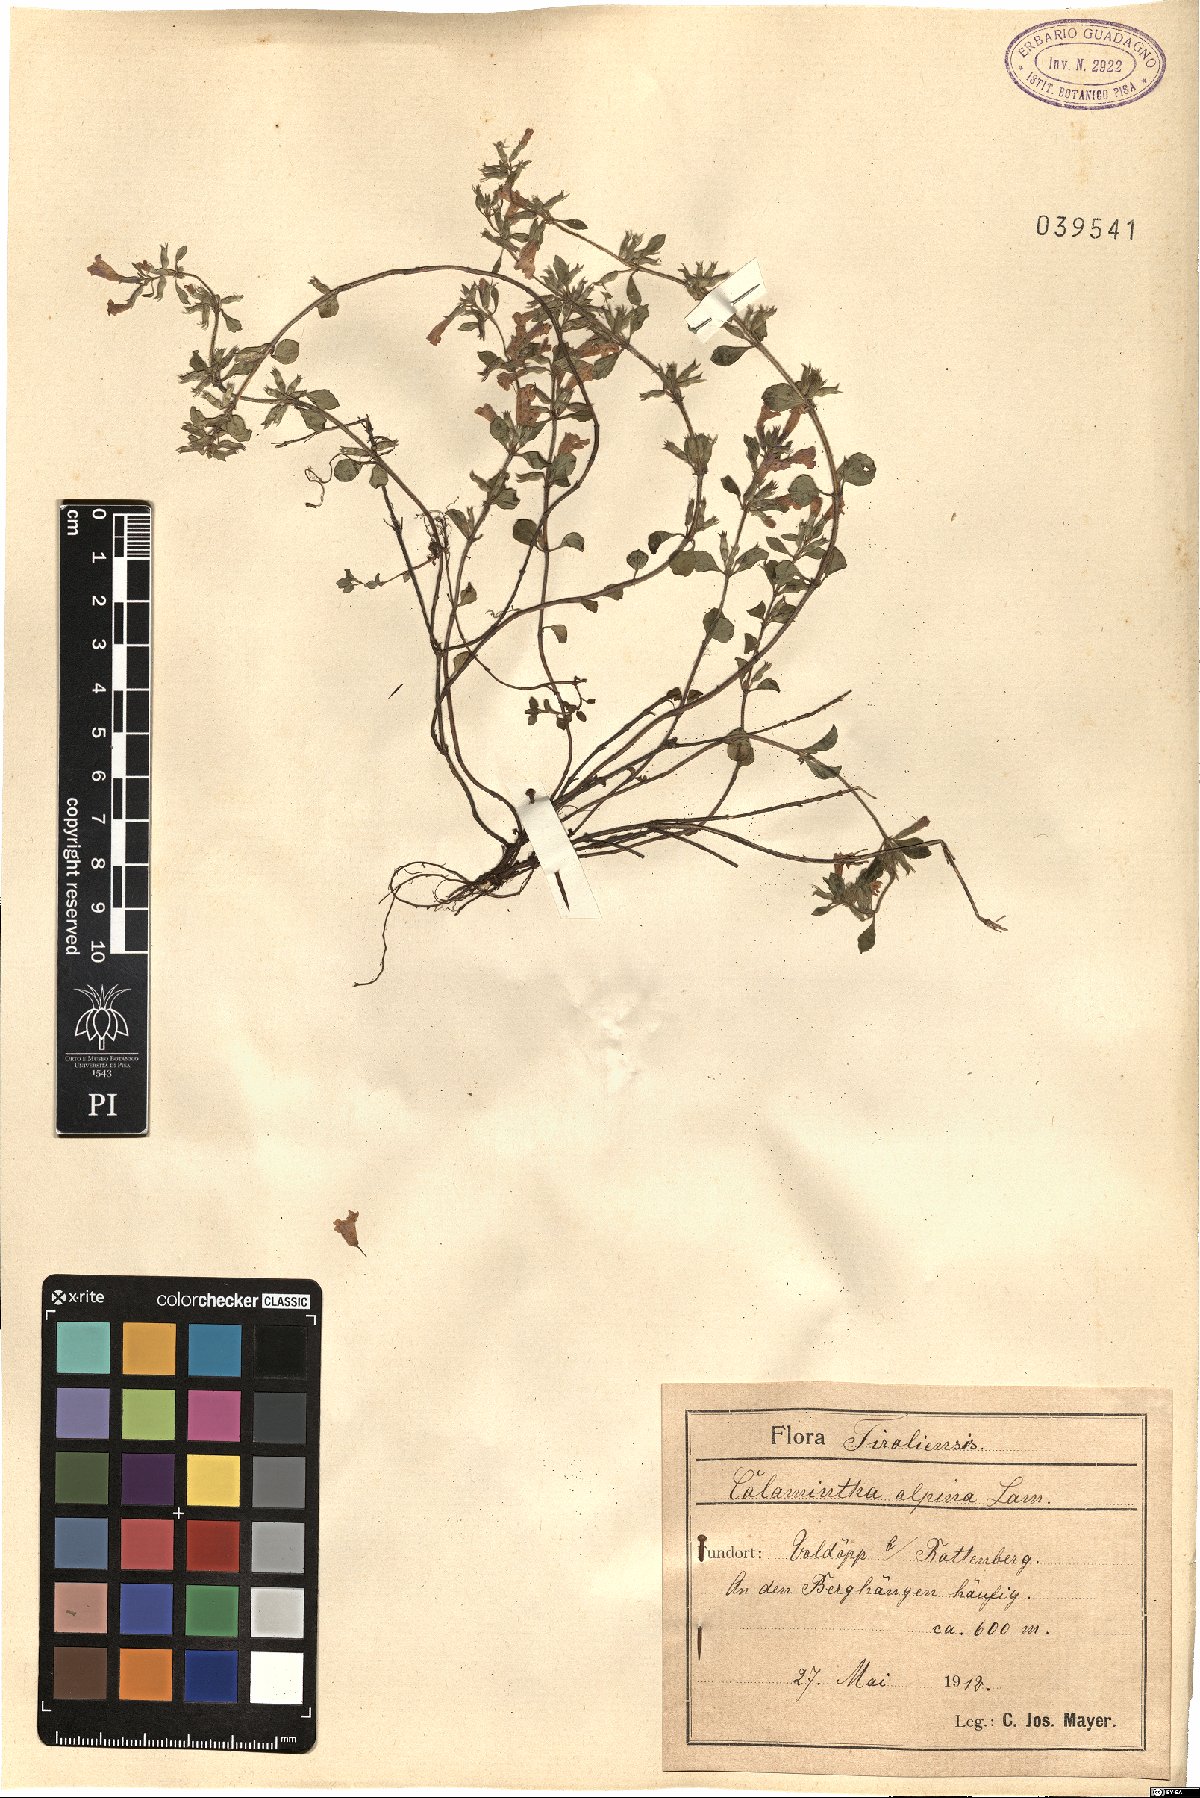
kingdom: Plantae
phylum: Tracheophyta
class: Magnoliopsida
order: Lamiales
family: Lamiaceae
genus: Clinopodium
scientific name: Clinopodium alpinum
